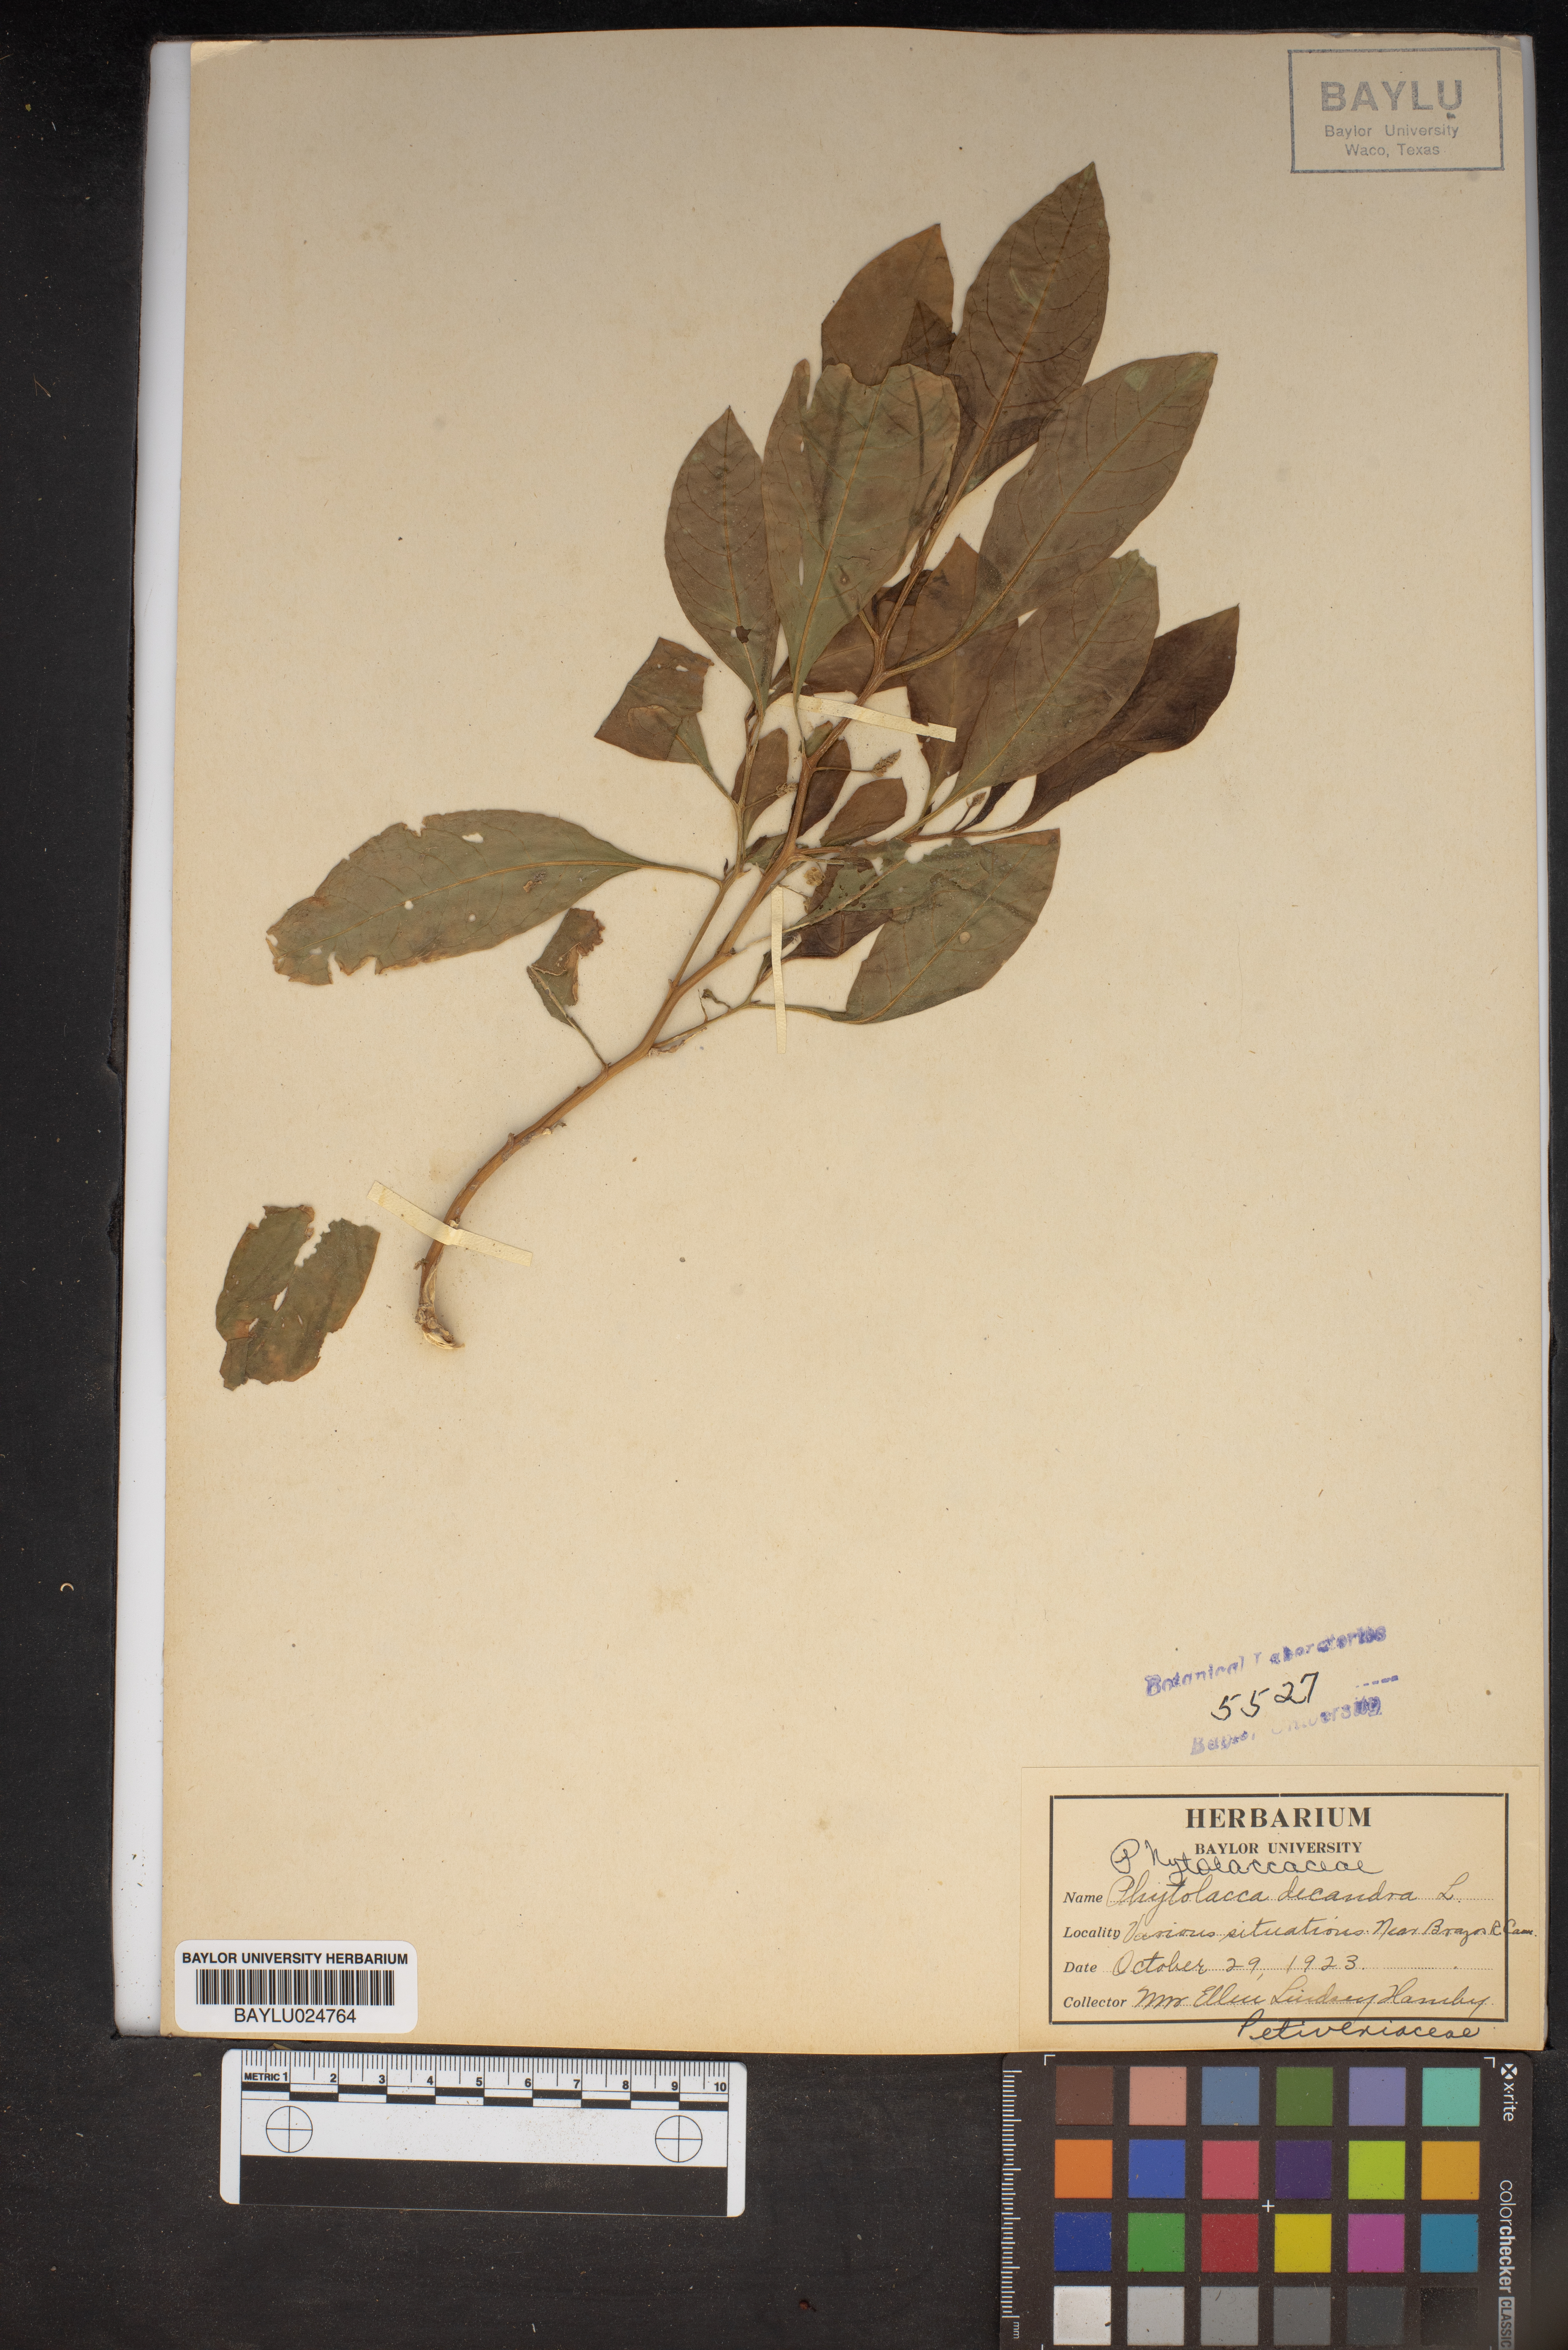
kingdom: Plantae
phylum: Tracheophyta
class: Magnoliopsida
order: Caryophyllales
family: Phytolaccaceae
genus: Phytolacca
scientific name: Phytolacca americana
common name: American pokeweed
